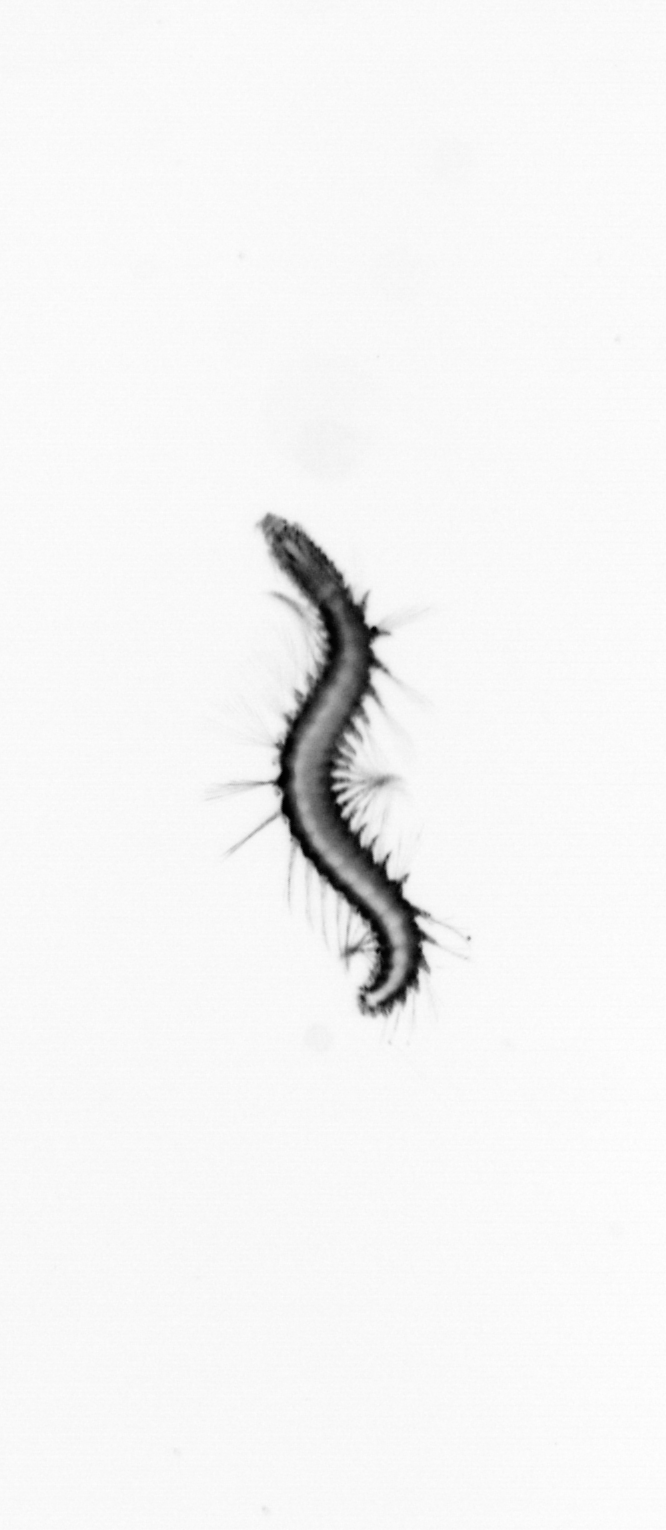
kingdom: Animalia
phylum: Annelida
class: Polychaeta
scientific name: Polychaeta
